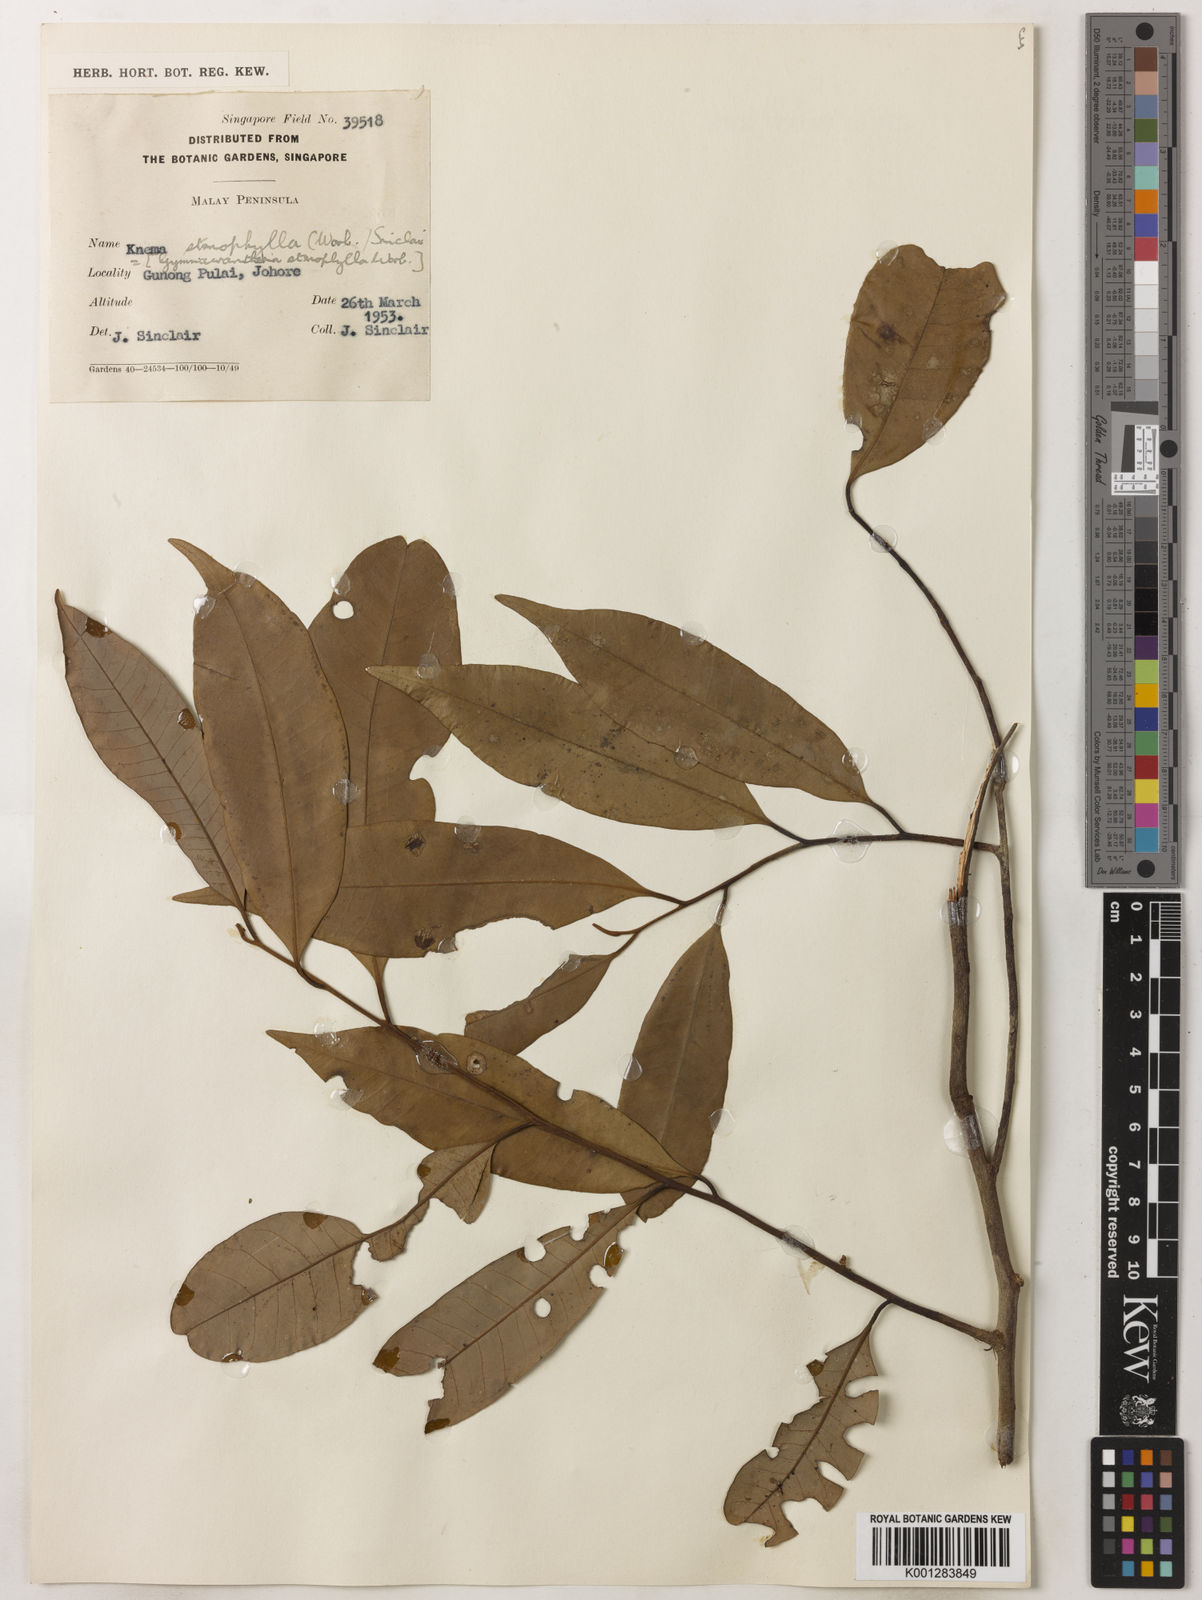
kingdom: Plantae
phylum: Tracheophyta
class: Magnoliopsida
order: Magnoliales
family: Myristicaceae
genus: Knema
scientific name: Knema stenophylla
